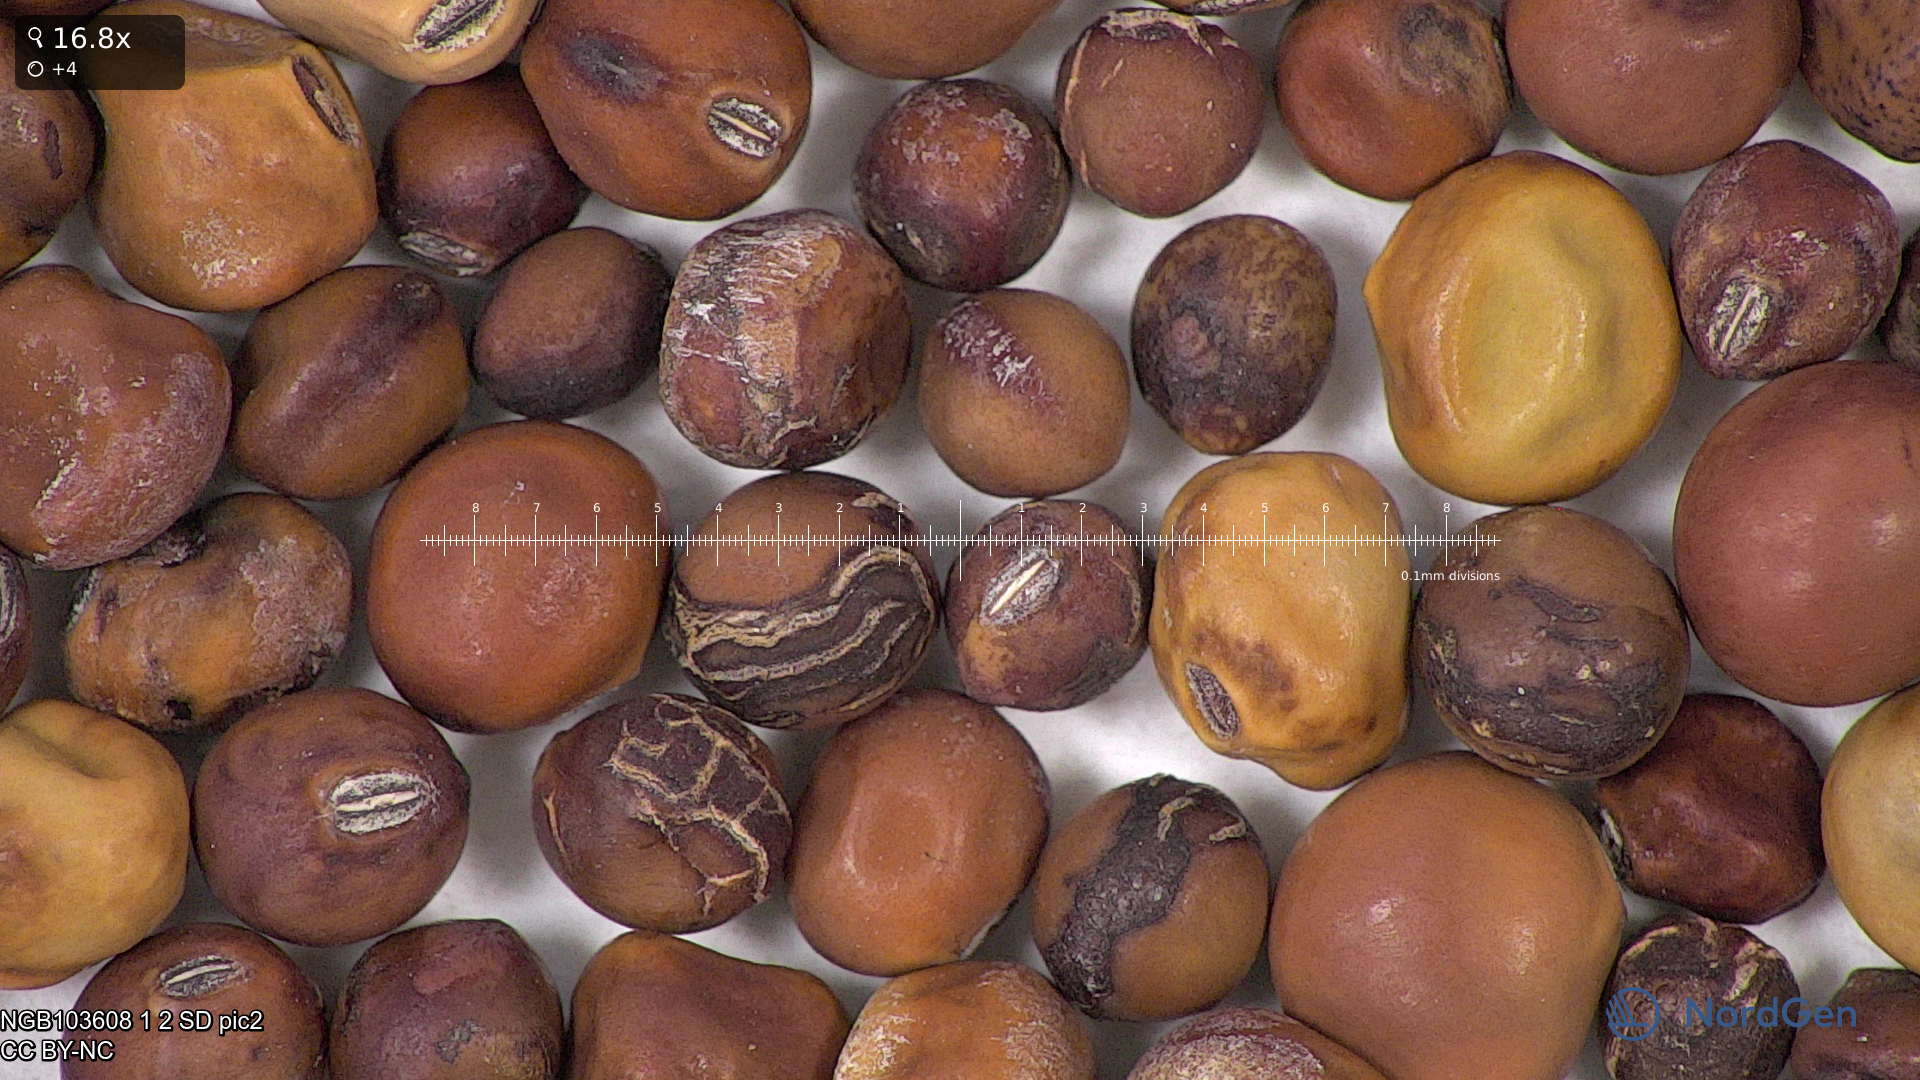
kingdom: Plantae
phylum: Tracheophyta
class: Magnoliopsida
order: Fabales
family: Fabaceae
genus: Lathyrus
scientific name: Lathyrus oleraceus
